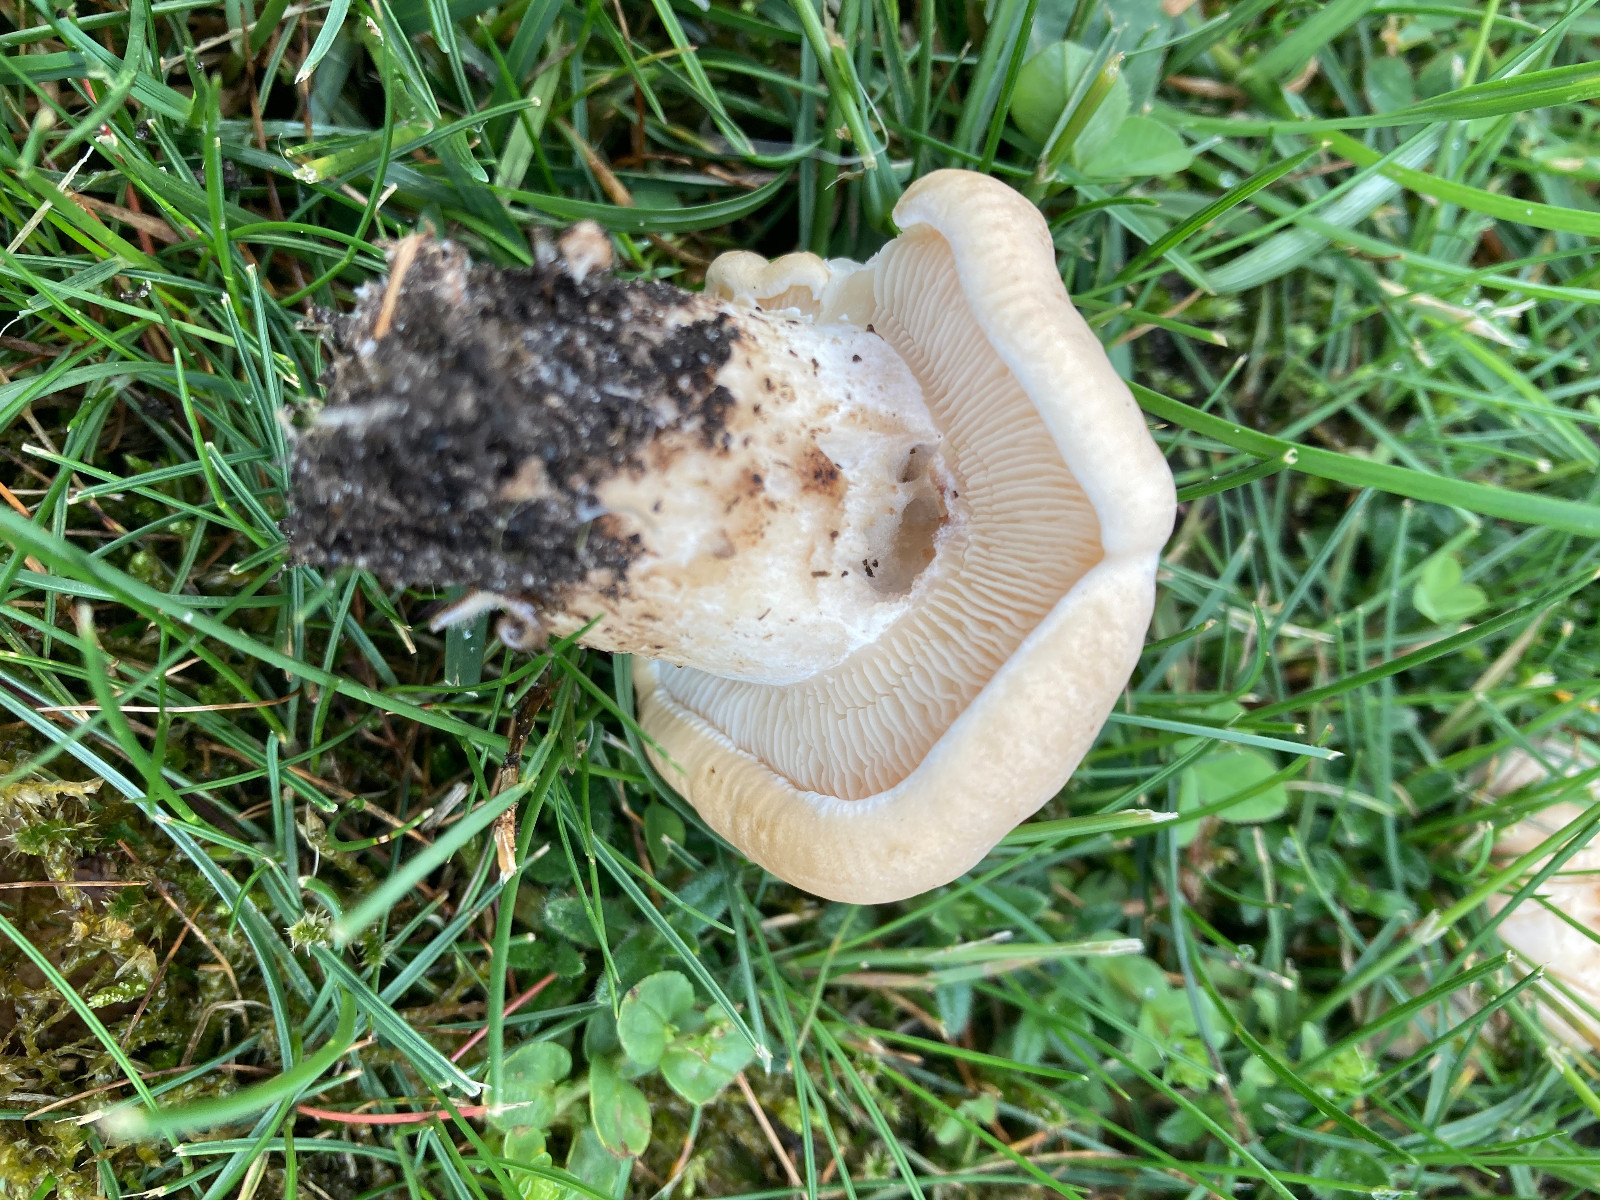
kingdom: Fungi
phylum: Basidiomycota
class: Agaricomycetes
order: Agaricales
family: Lyophyllaceae
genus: Calocybe
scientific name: Calocybe gambosa
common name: vårmusseron
